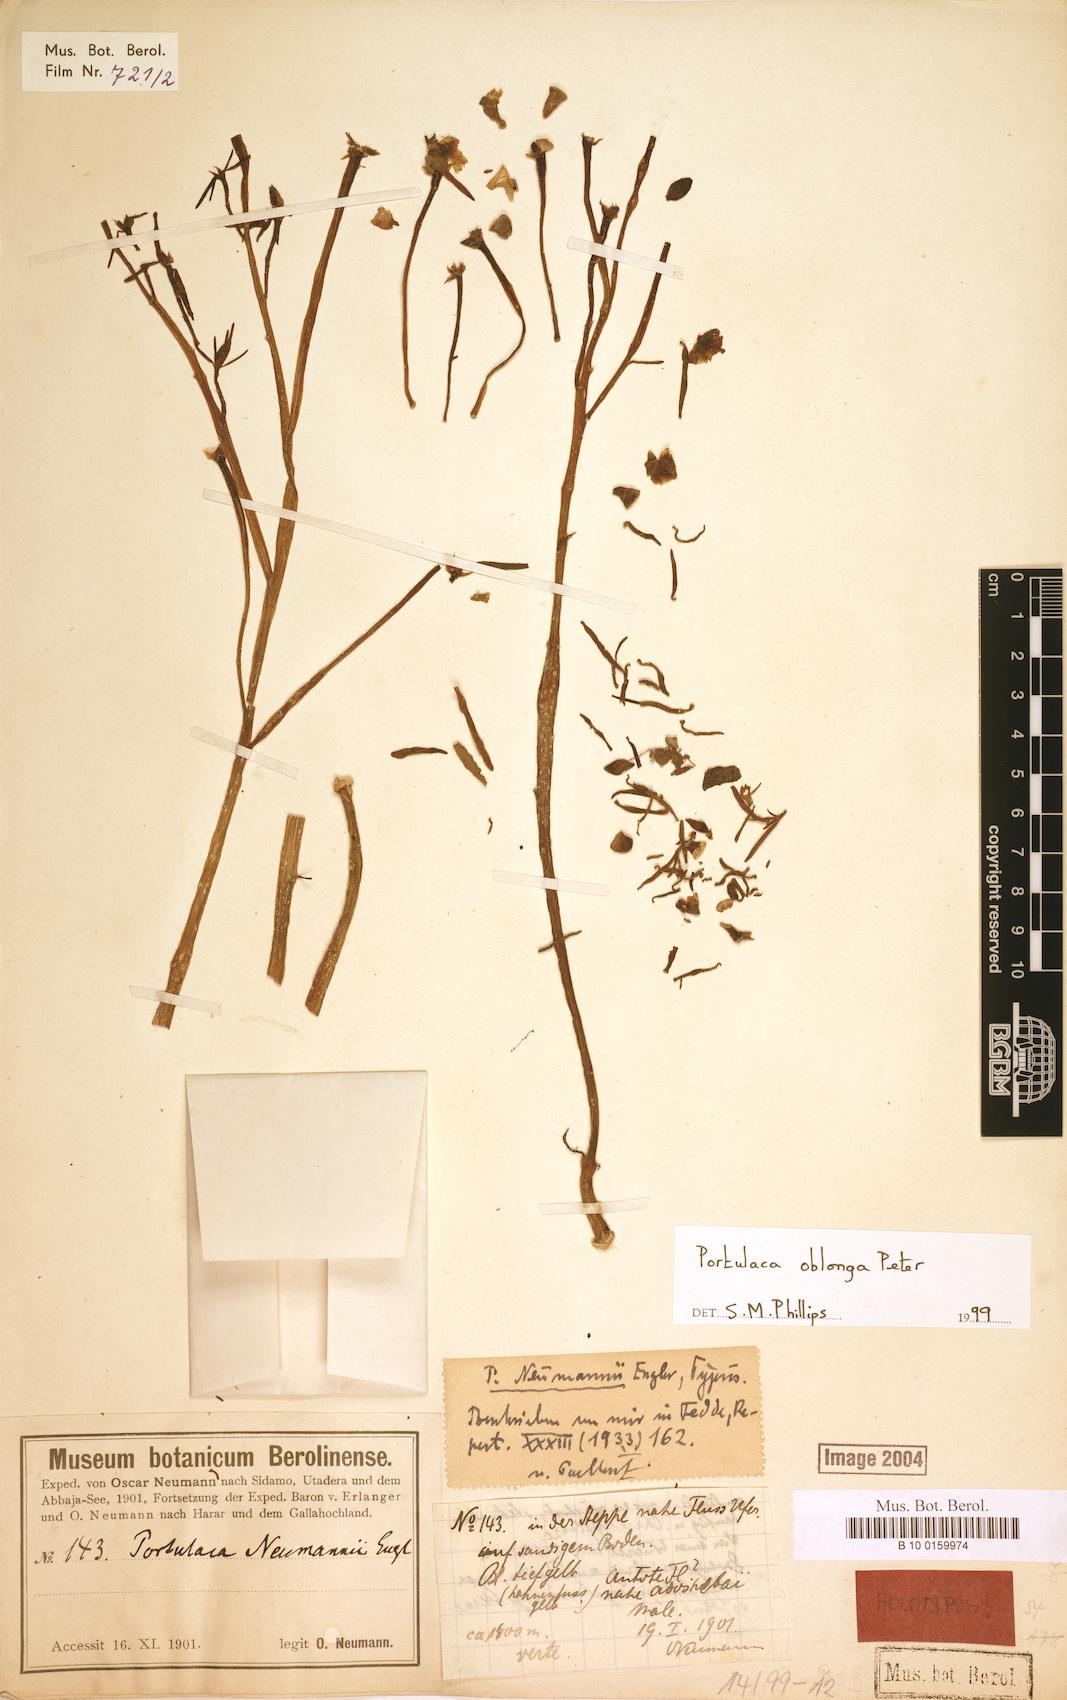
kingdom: Plantae
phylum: Tracheophyta
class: Magnoliopsida
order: Caryophyllales
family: Portulacaceae
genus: Portulaca
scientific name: Portulaca oblonga
